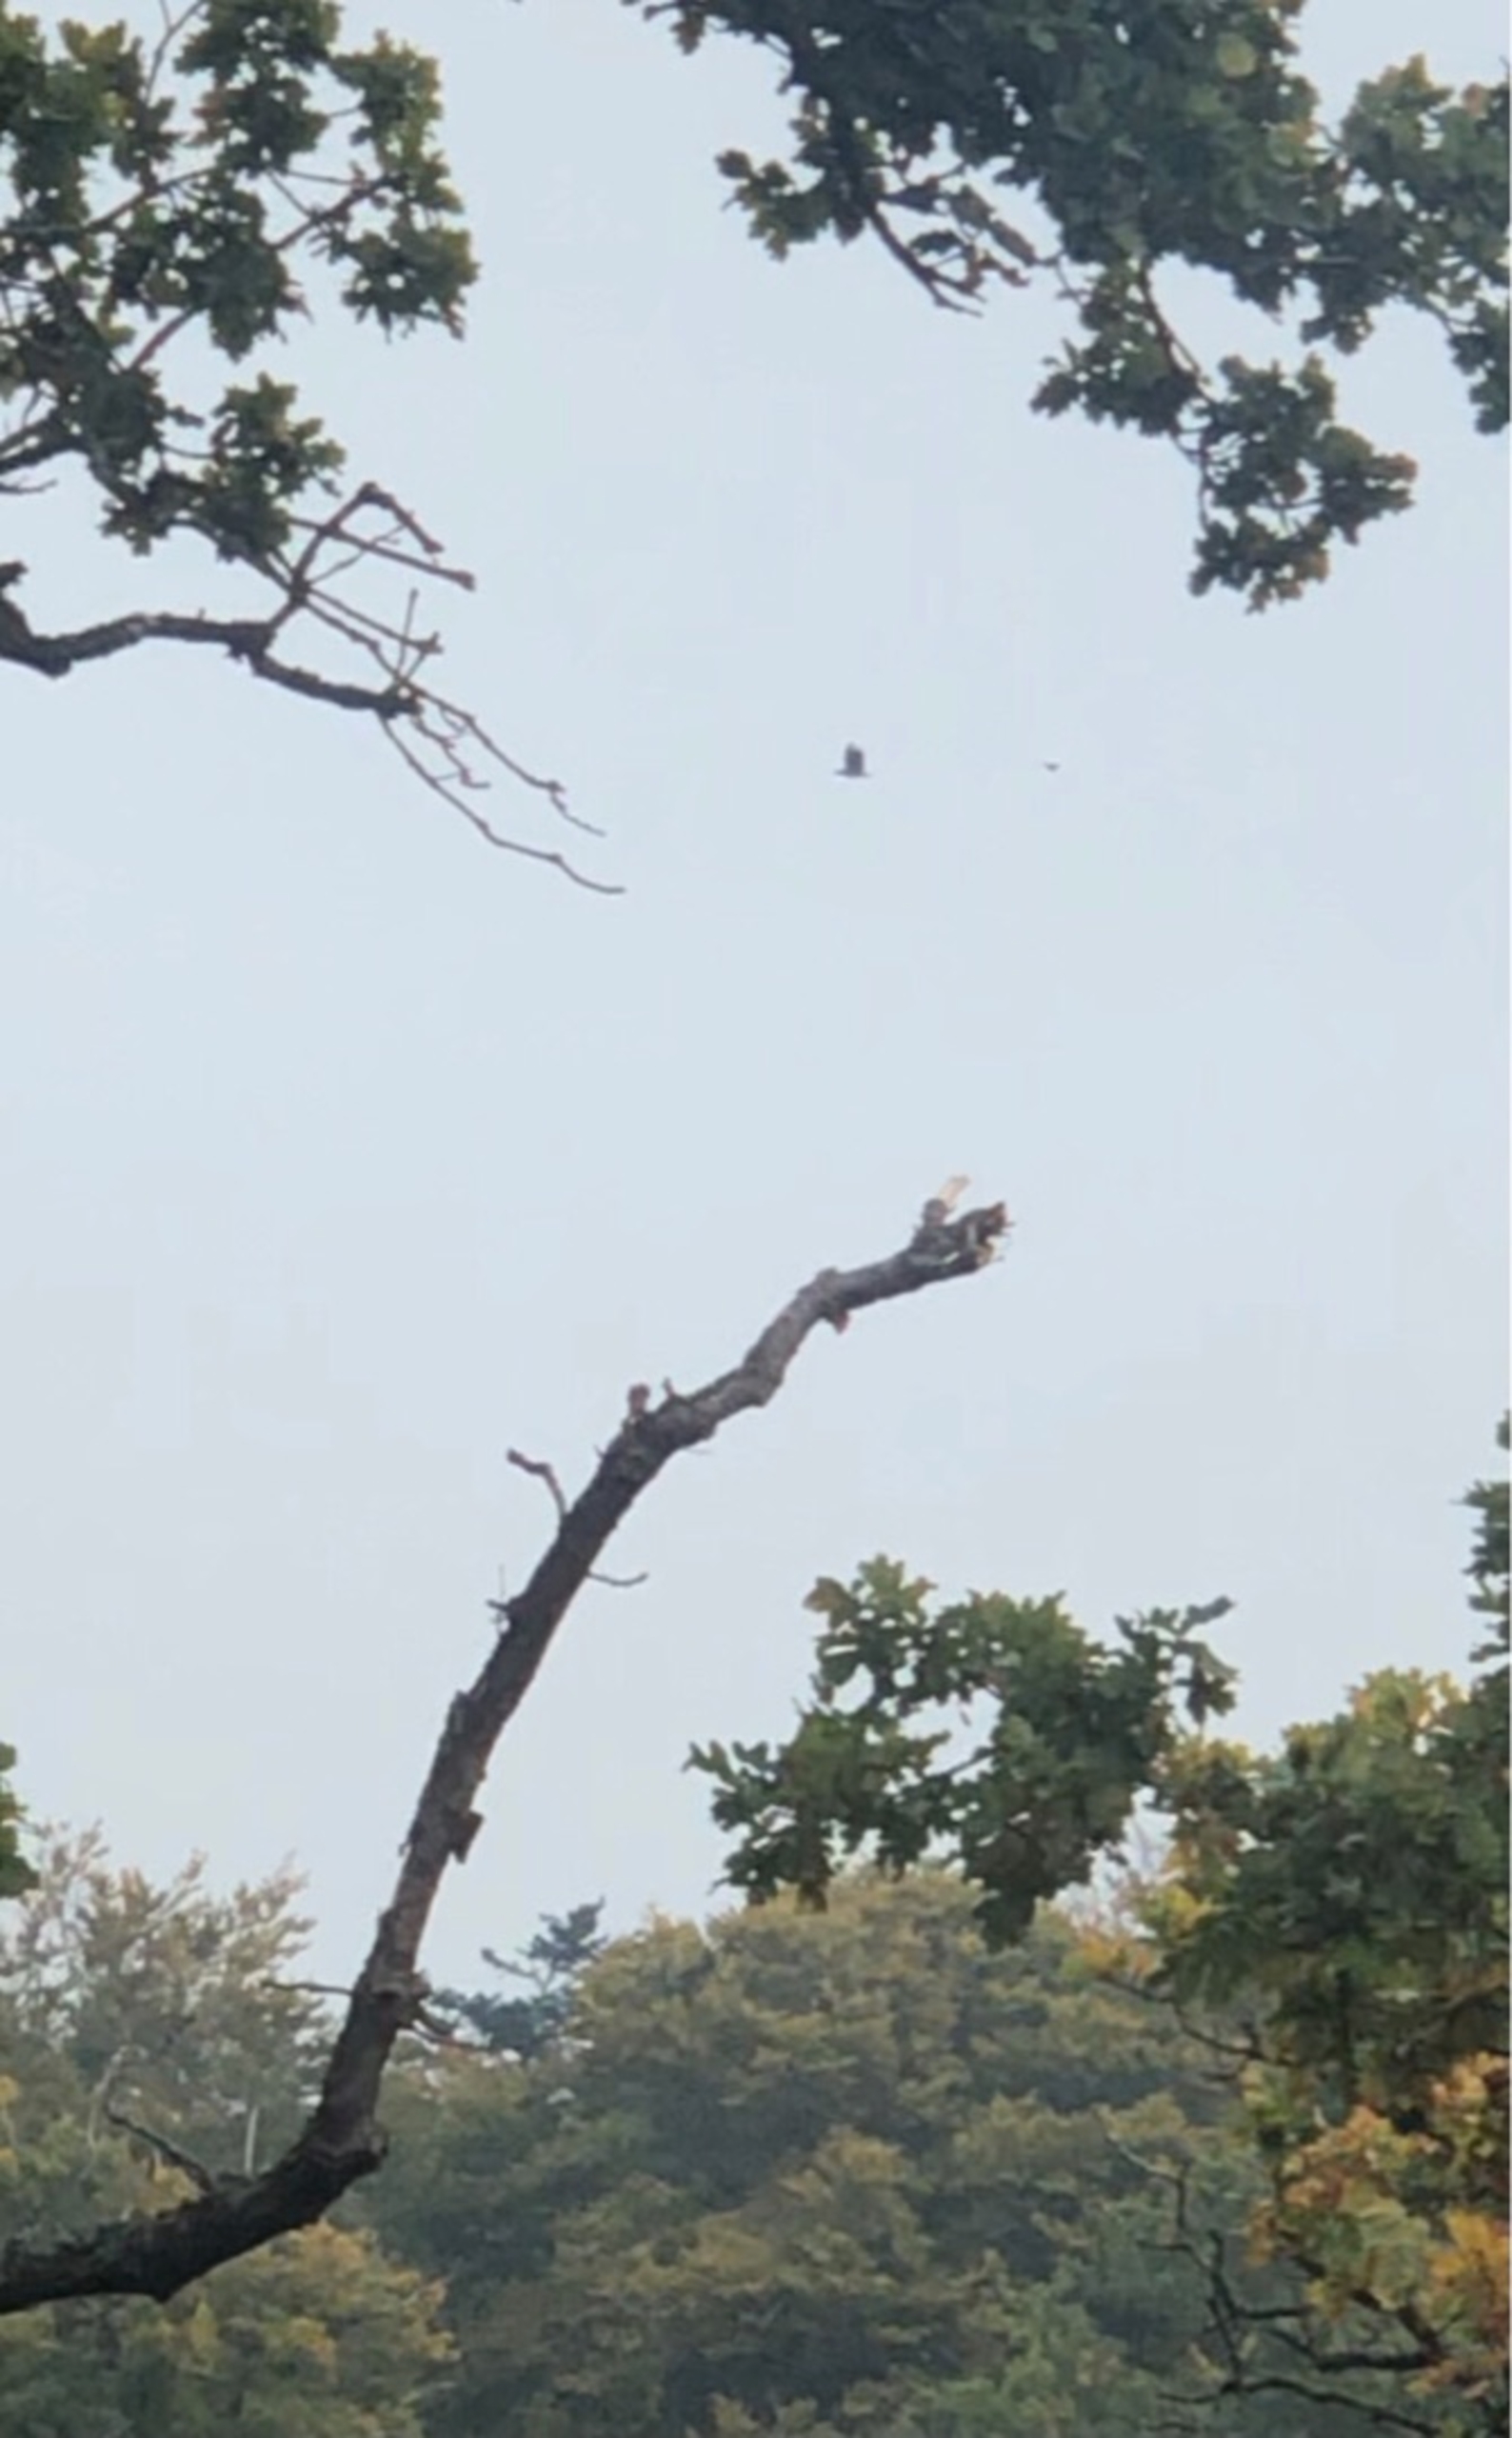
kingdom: Animalia
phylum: Chordata
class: Aves
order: Accipitriformes
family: Accipitridae
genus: Haliaeetus
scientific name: Haliaeetus albicilla
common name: Havørn
